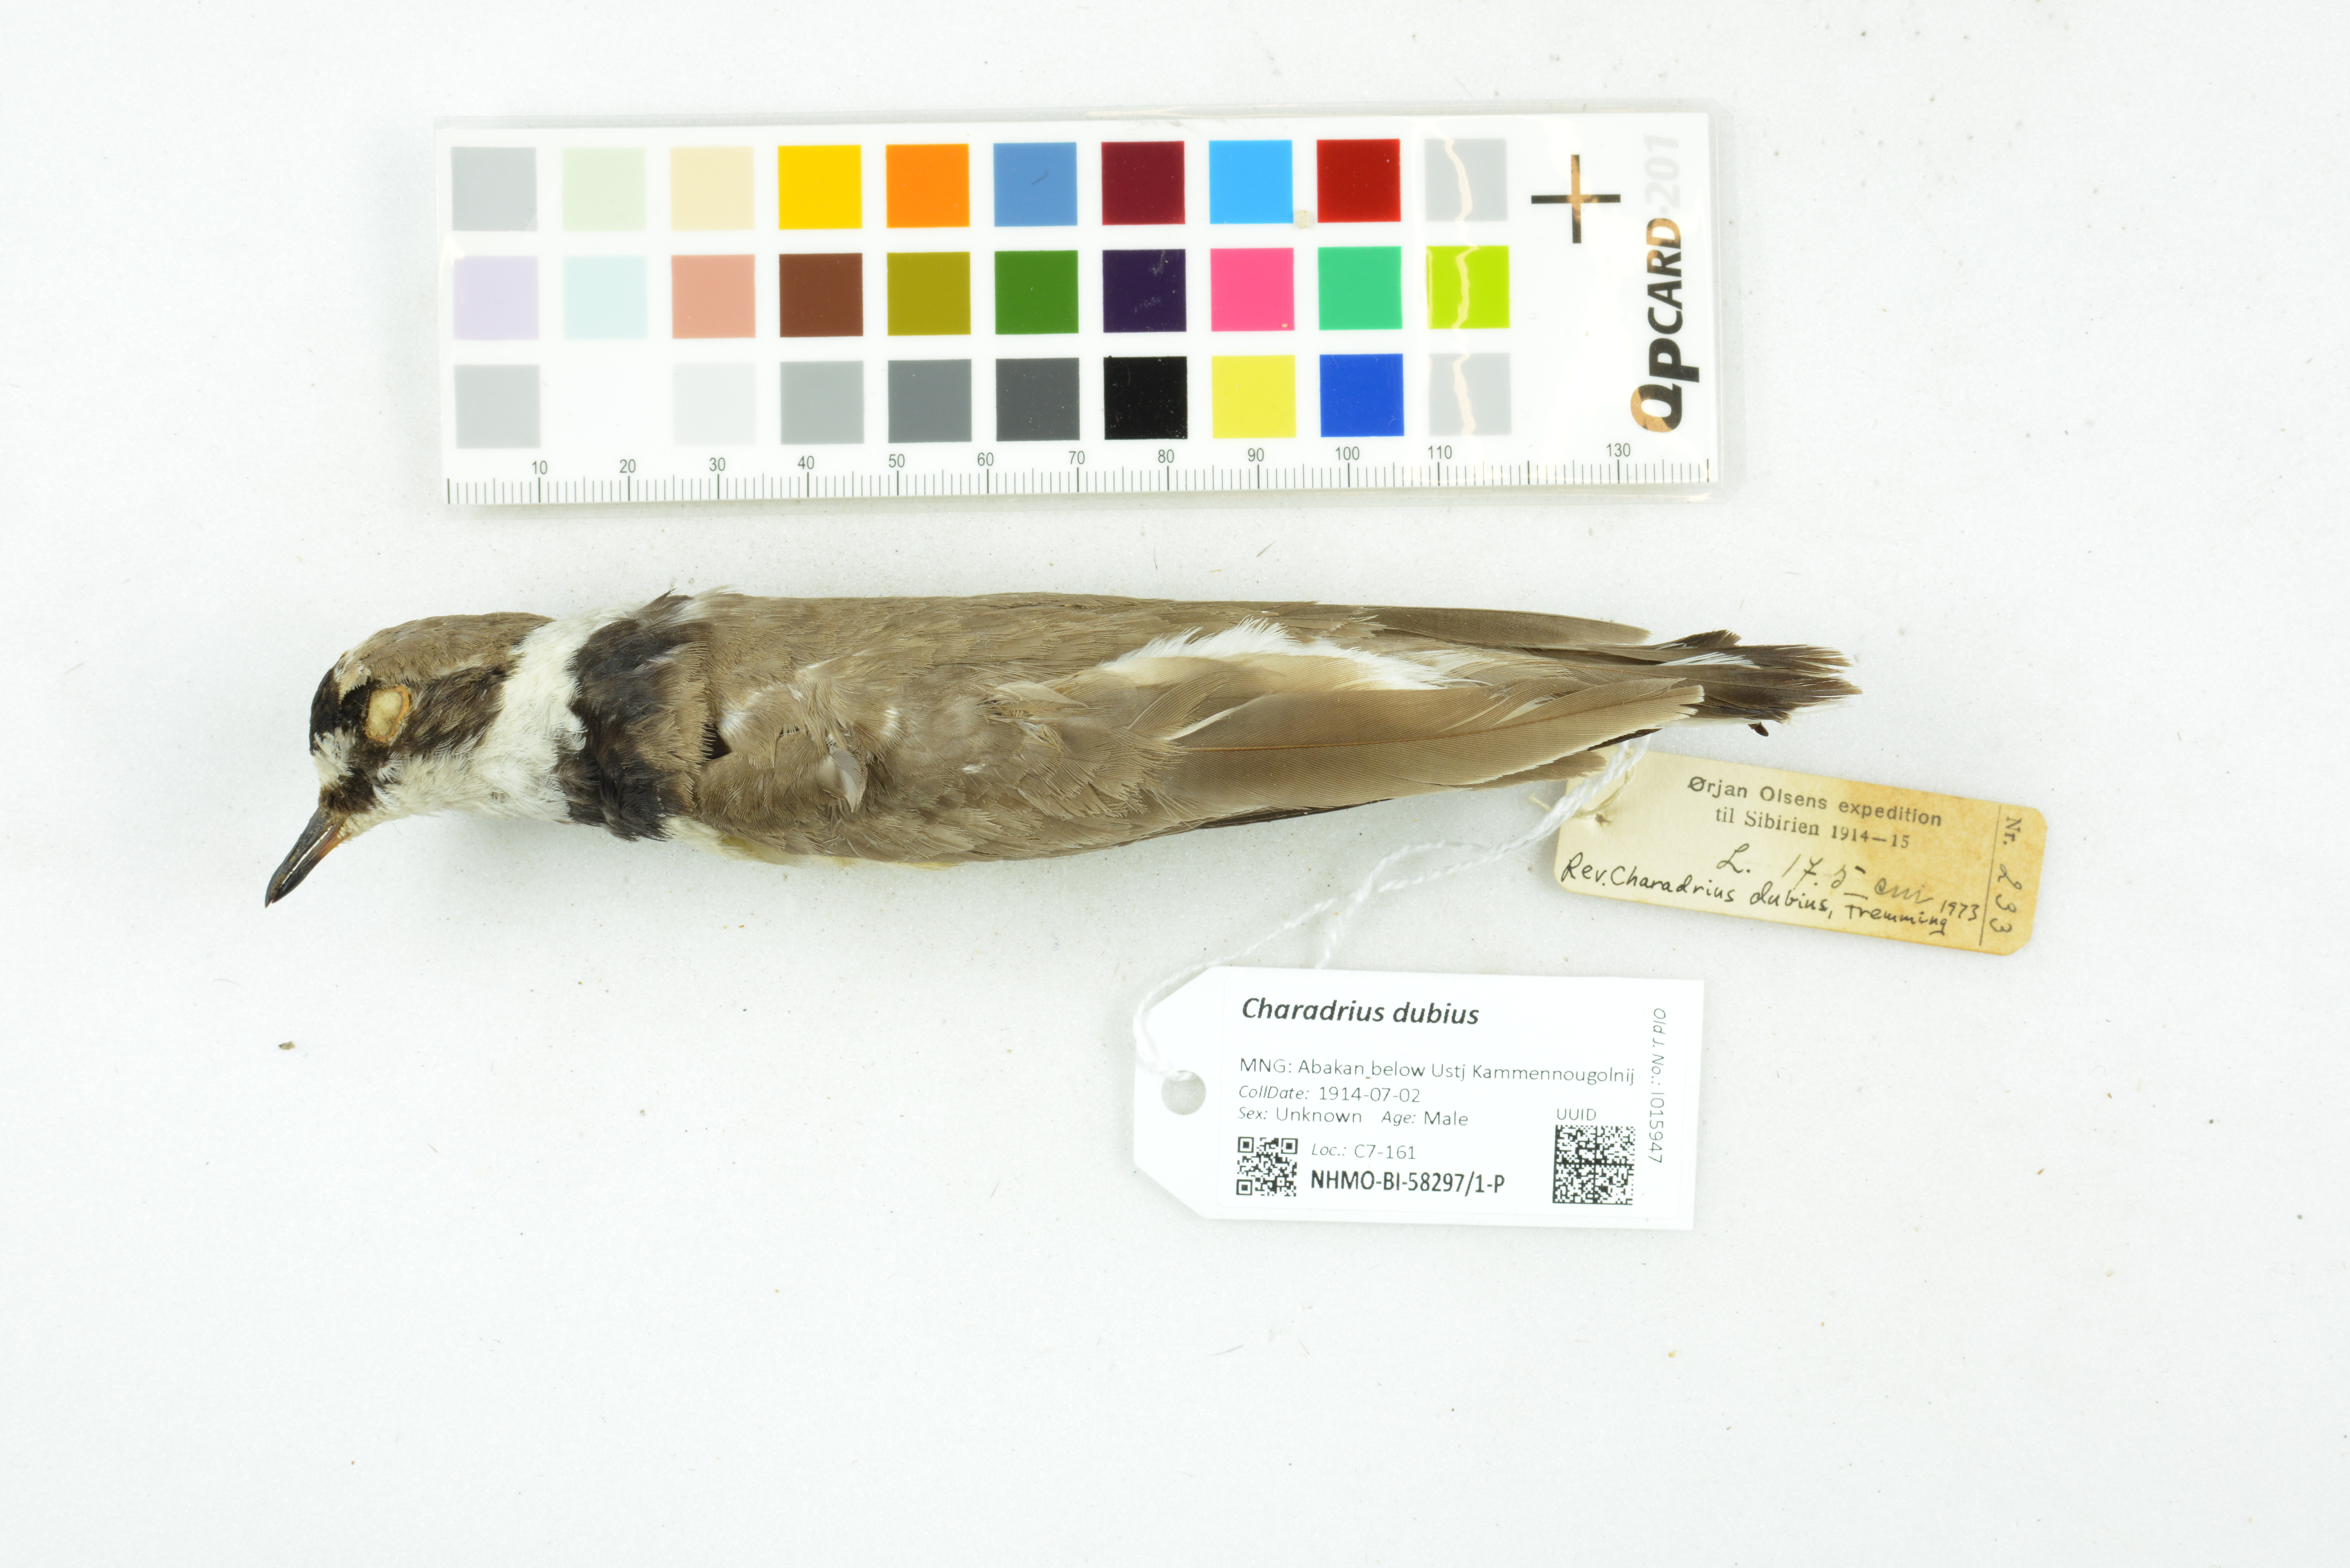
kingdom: Animalia
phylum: Chordata
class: Aves
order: Charadriiformes
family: Charadriidae
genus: Charadrius
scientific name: Charadrius dubius
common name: Little ringed plover
